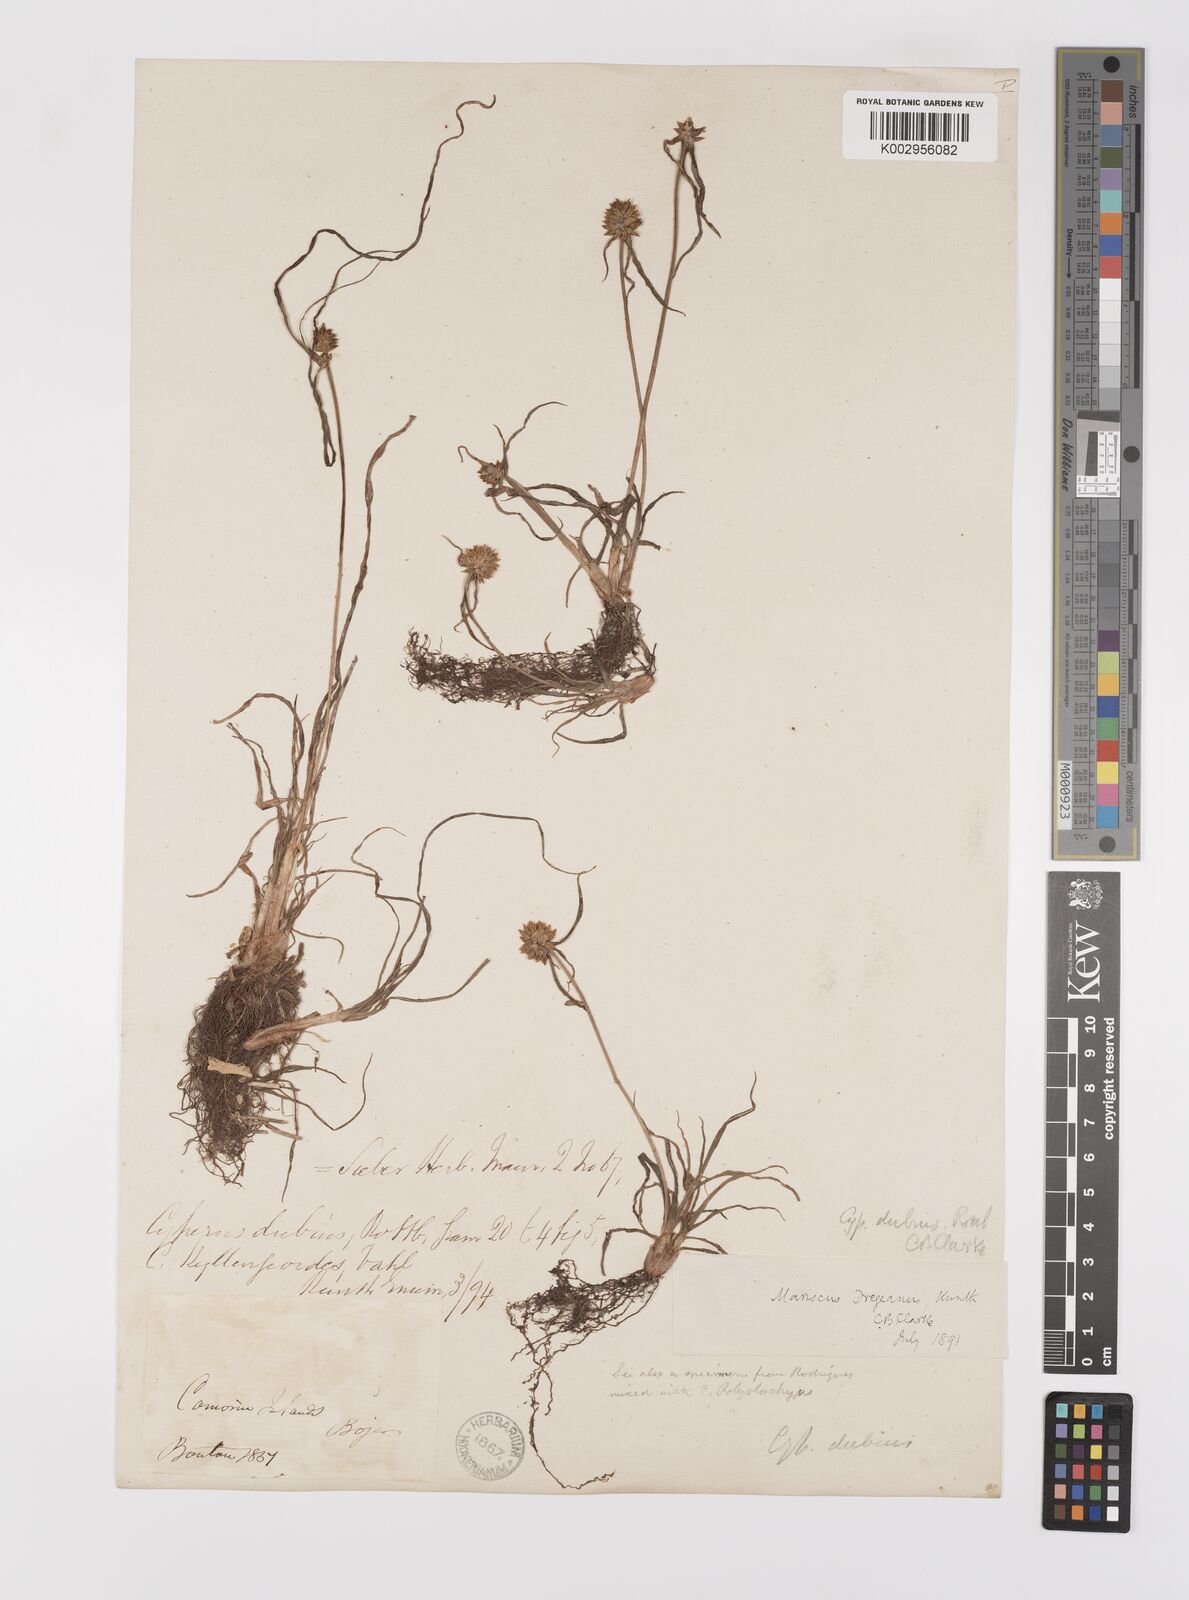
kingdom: Plantae
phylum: Tracheophyta
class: Liliopsida
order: Poales
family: Cyperaceae
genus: Cyperus
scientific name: Cyperus dubius
